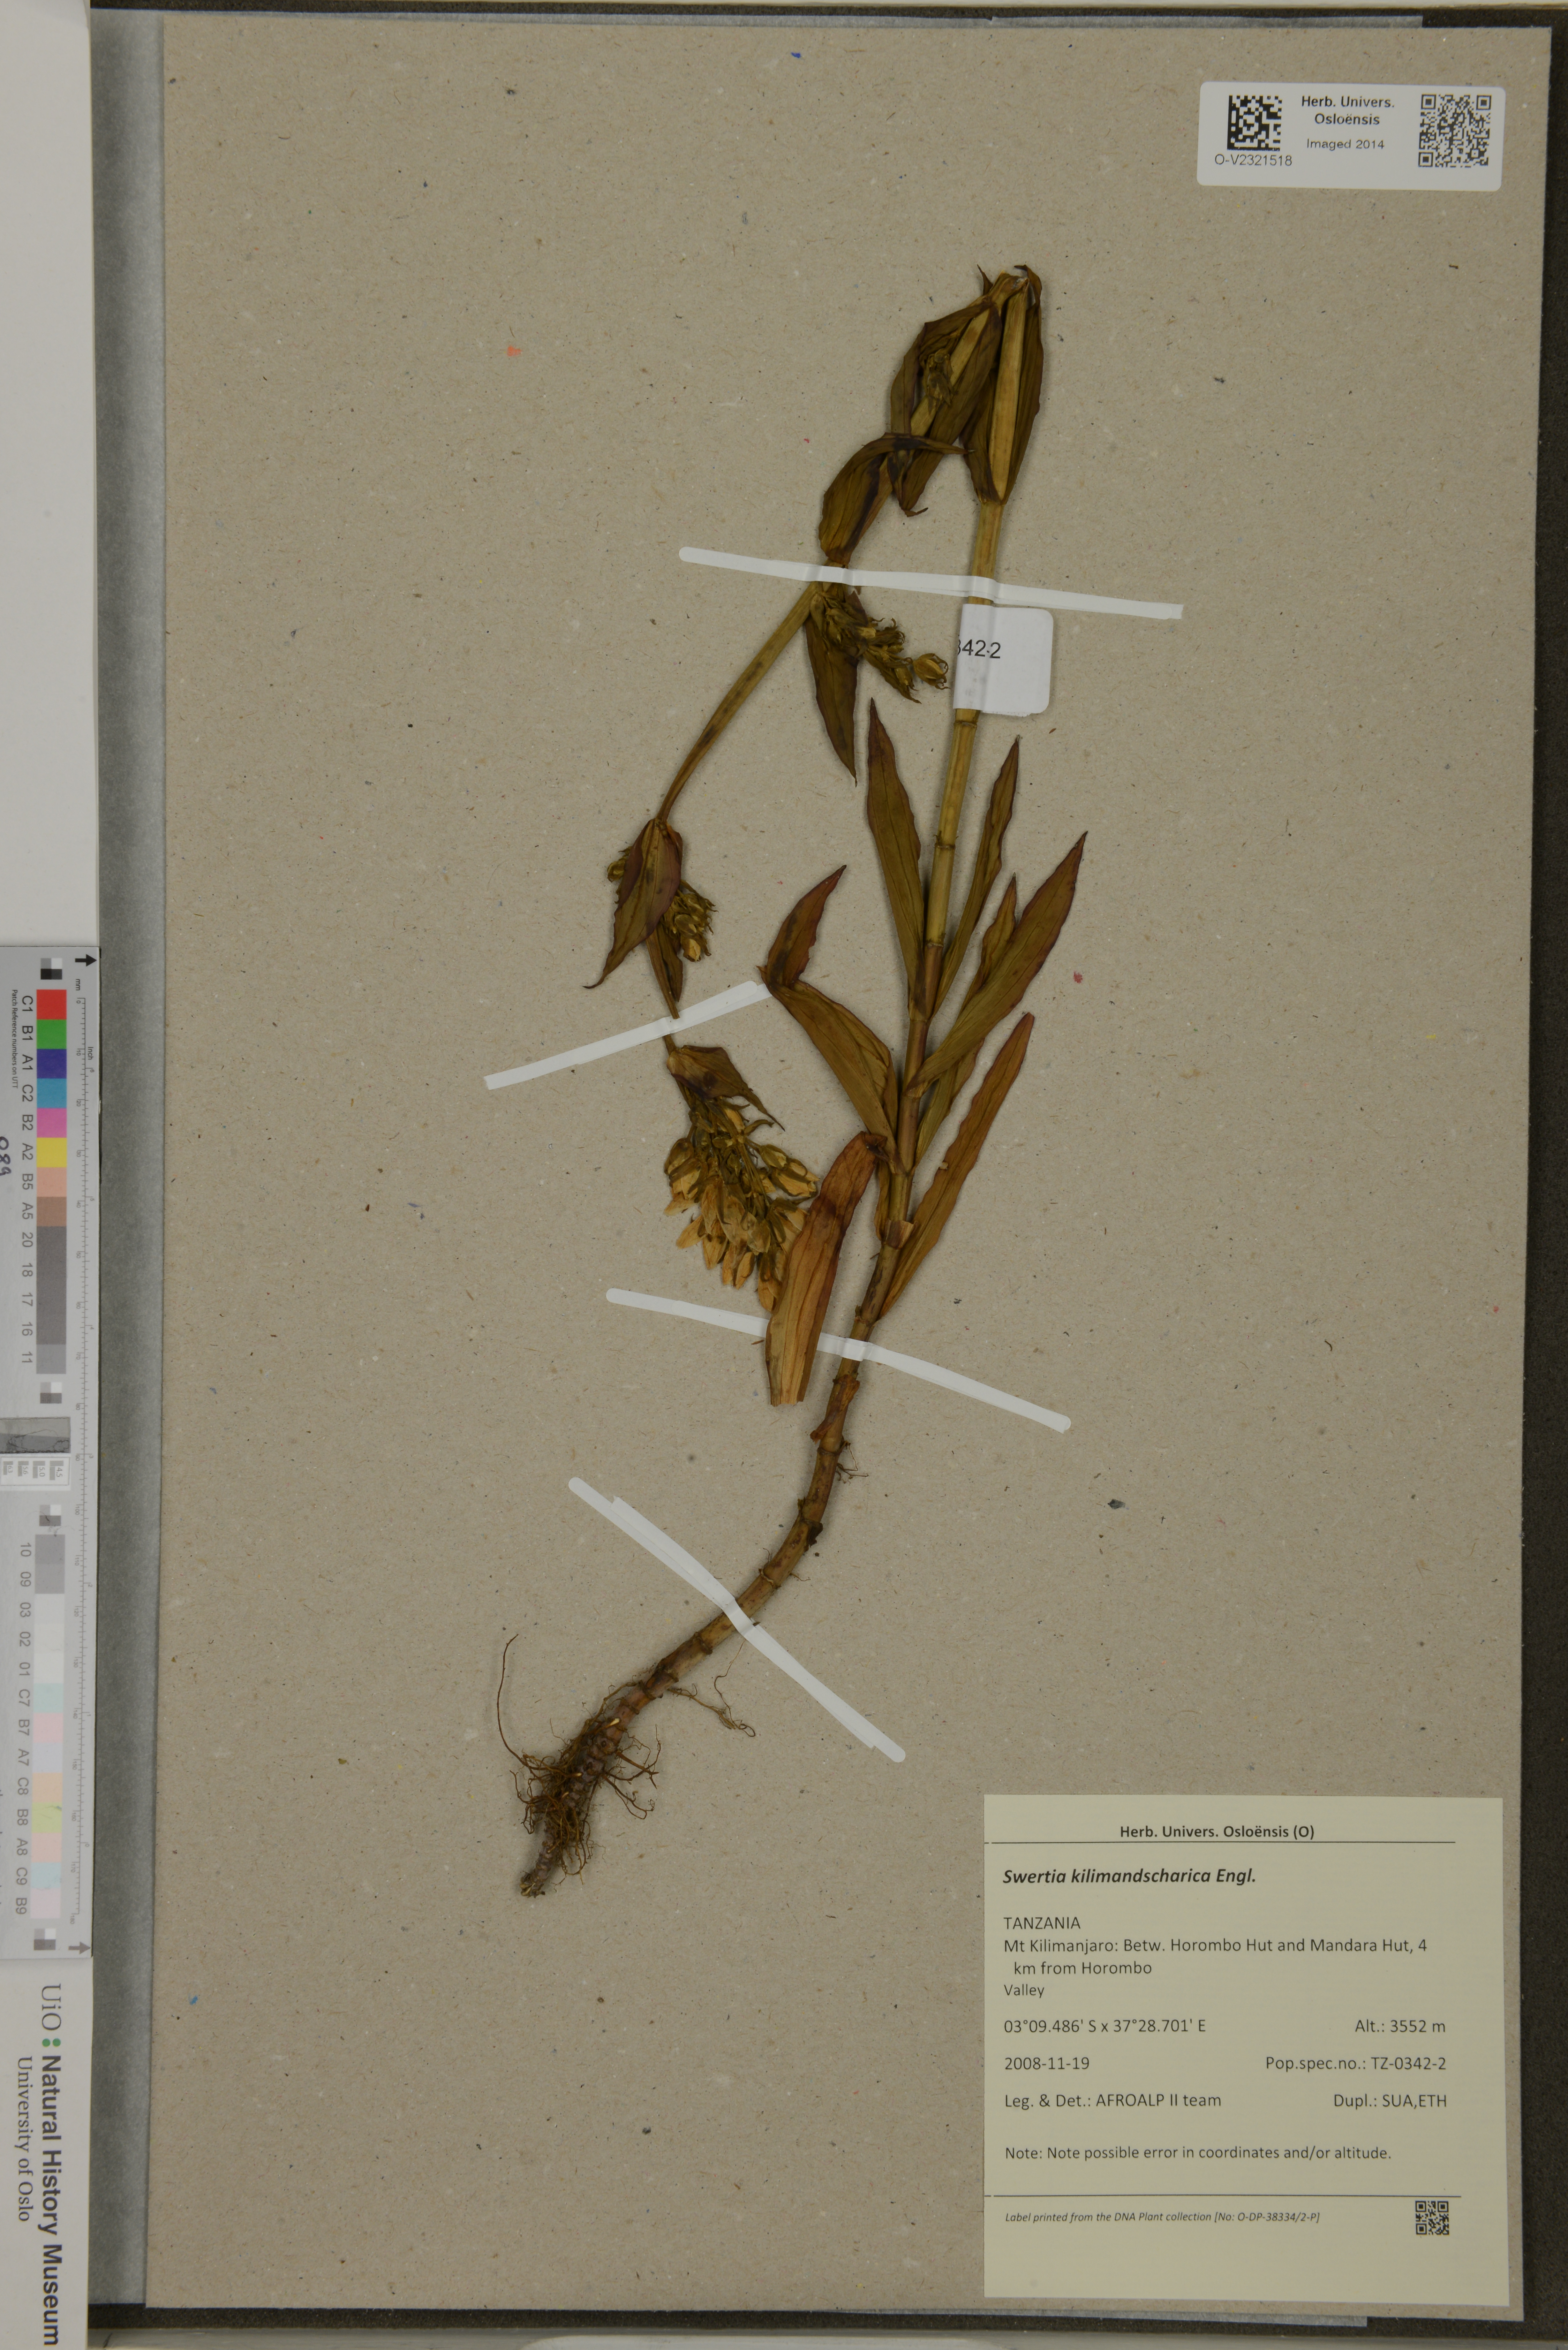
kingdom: Plantae
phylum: Tracheophyta
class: Magnoliopsida
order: Gentianales
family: Gentianaceae
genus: Swertia
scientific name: Swertia kilimandscharica
